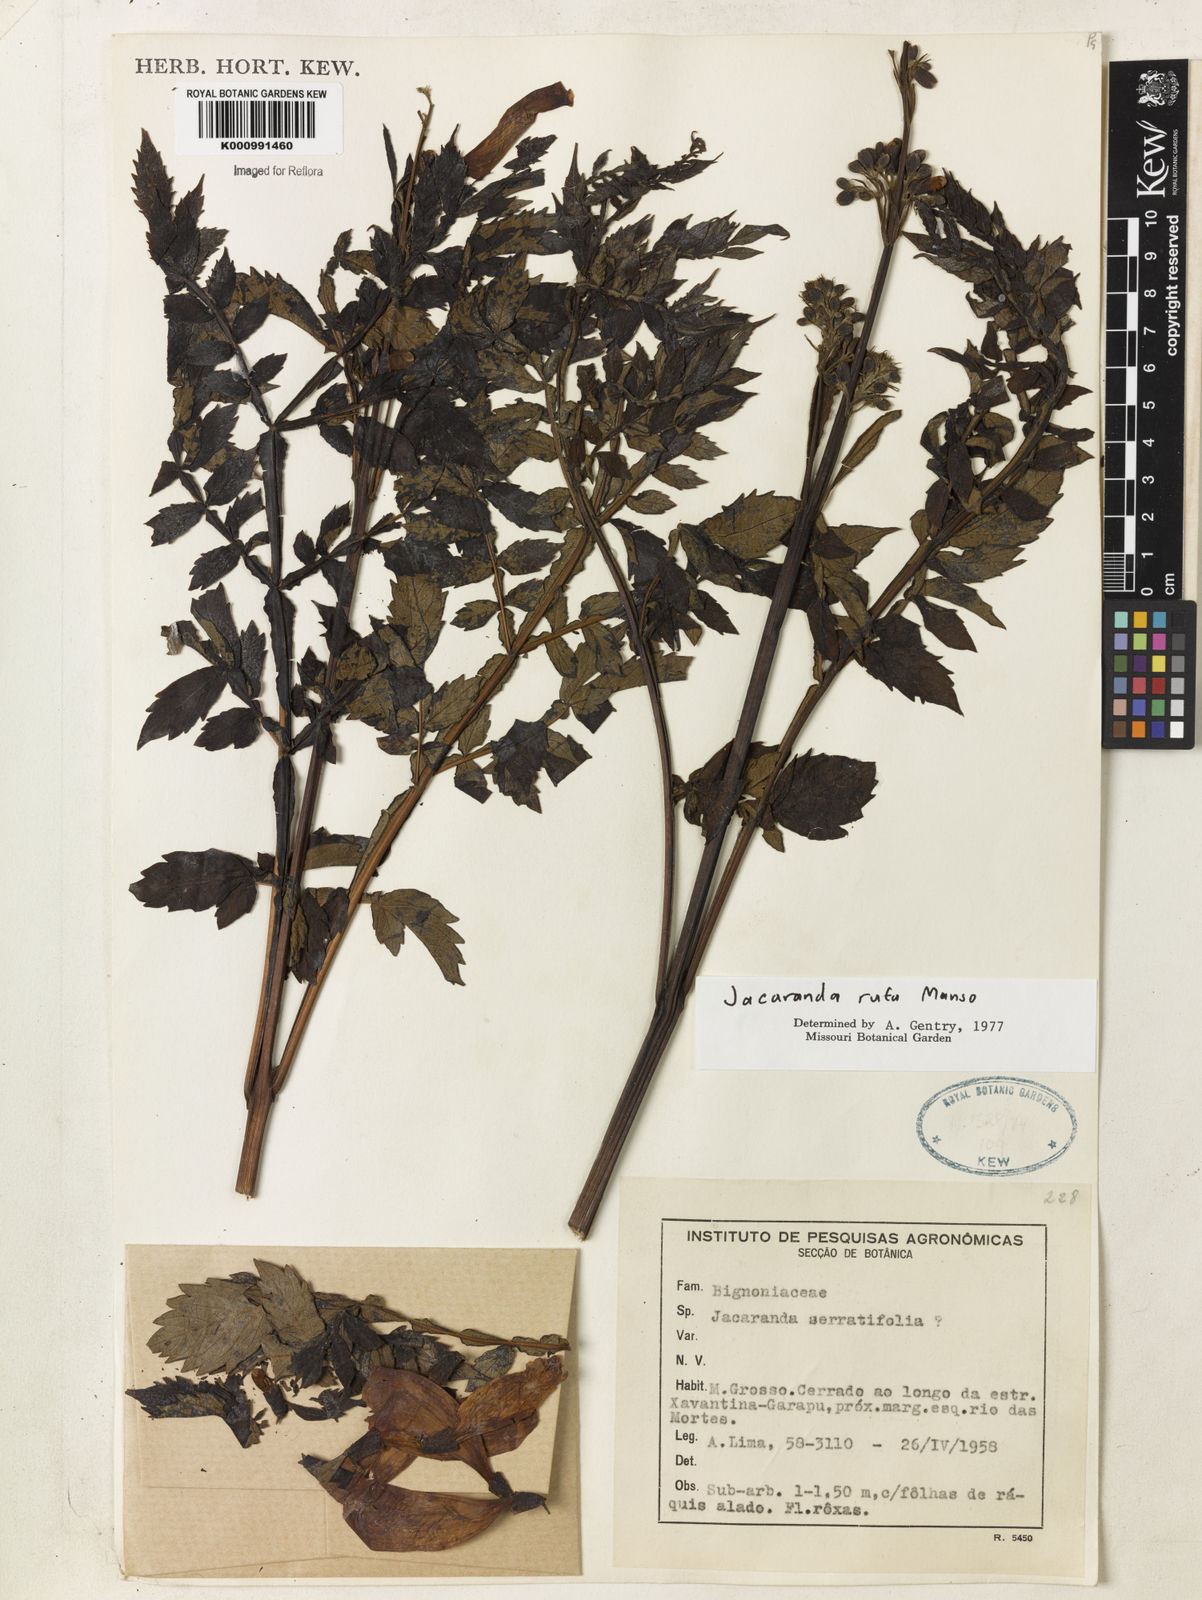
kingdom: Plantae
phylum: Tracheophyta
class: Magnoliopsida
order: Lamiales
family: Bignoniaceae
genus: Jacaranda
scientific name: Jacaranda rufa
